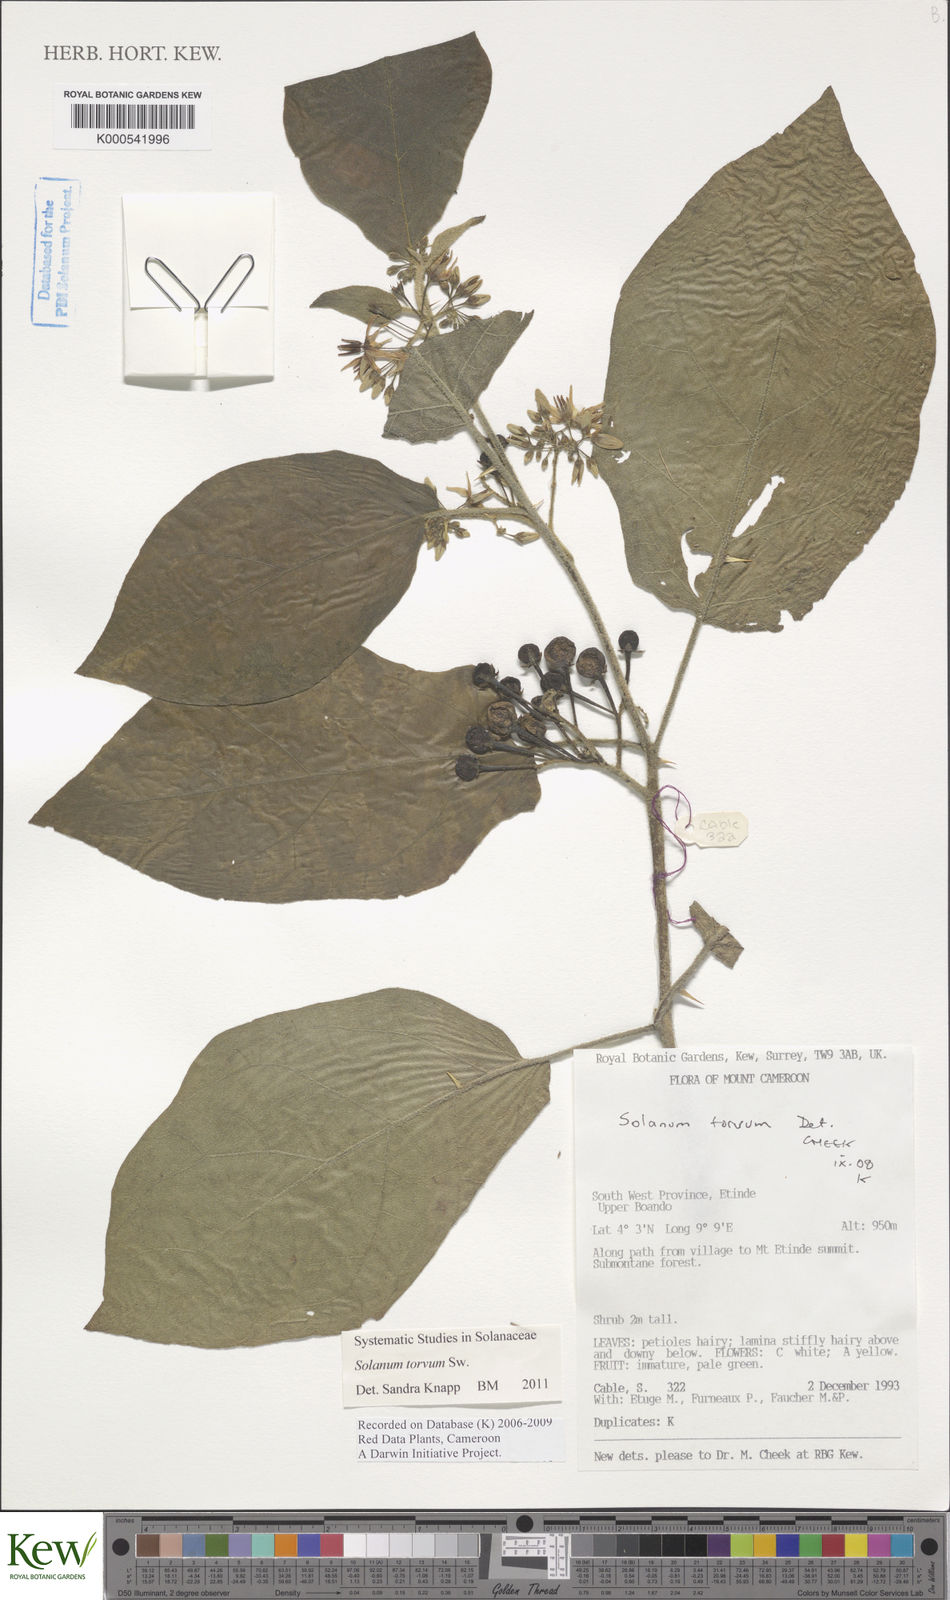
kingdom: Plantae
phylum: Tracheophyta
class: Magnoliopsida
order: Solanales
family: Solanaceae
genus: Solanum
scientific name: Solanum torvum
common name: Turkey berry
